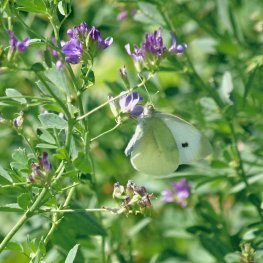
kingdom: Animalia
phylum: Arthropoda
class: Insecta
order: Lepidoptera
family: Pieridae
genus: Pieris
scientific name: Pieris rapae
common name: Cabbage White
